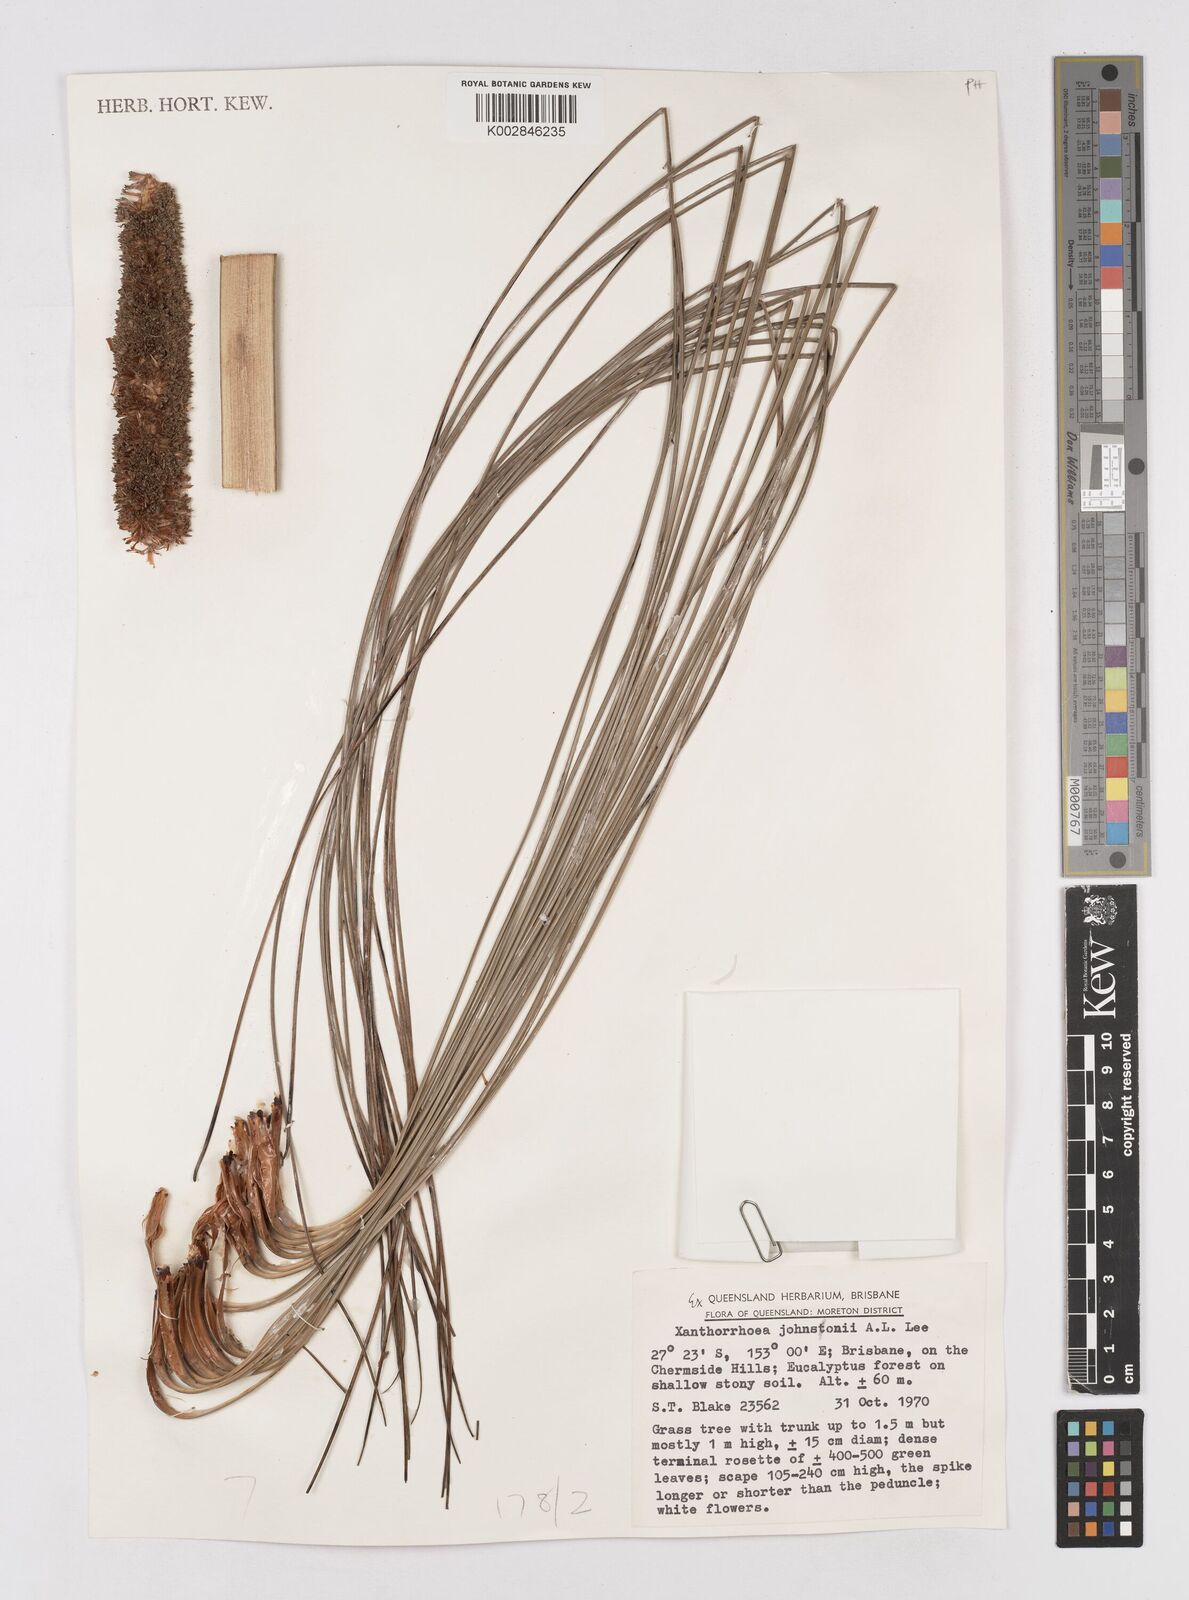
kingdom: Plantae
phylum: Tracheophyta
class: Liliopsida
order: Asparagales
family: Asphodelaceae
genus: Xanthorrhoea
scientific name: Xanthorrhoea johnsonii
